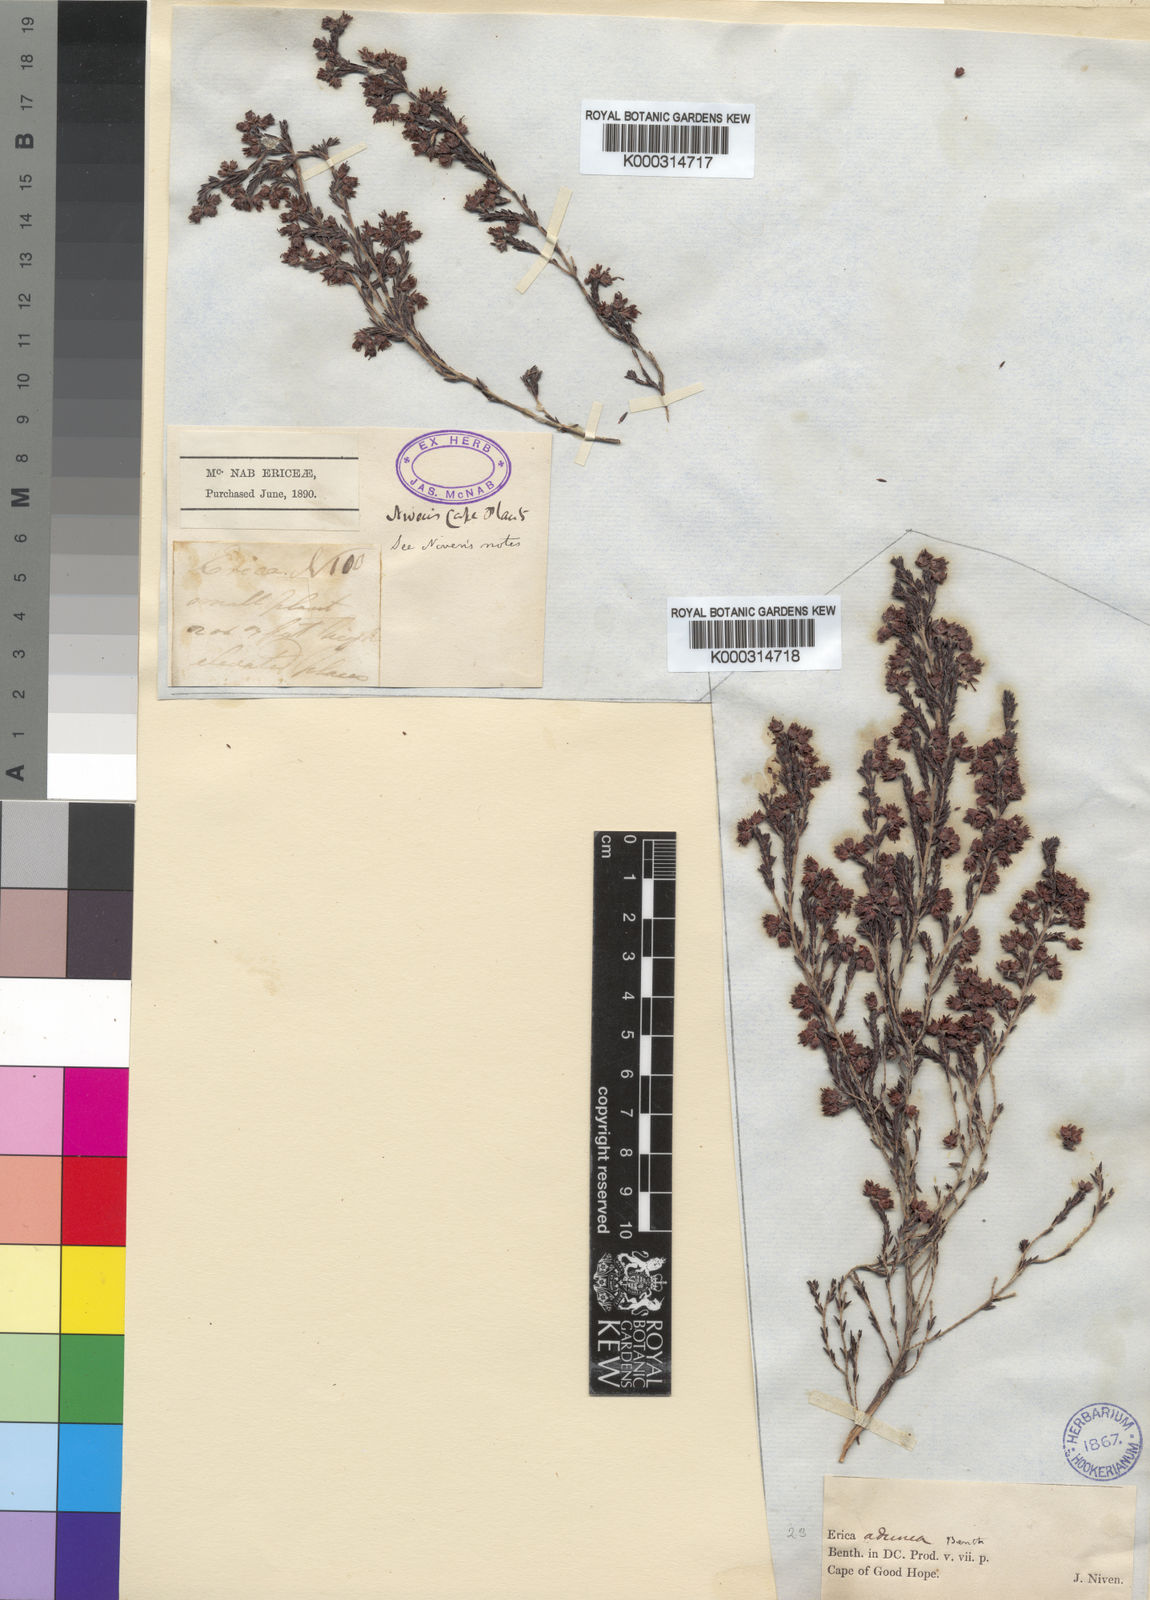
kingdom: Plantae
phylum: Tracheophyta
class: Magnoliopsida
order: Ericales
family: Ericaceae
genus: Erica
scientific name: Erica triceps
